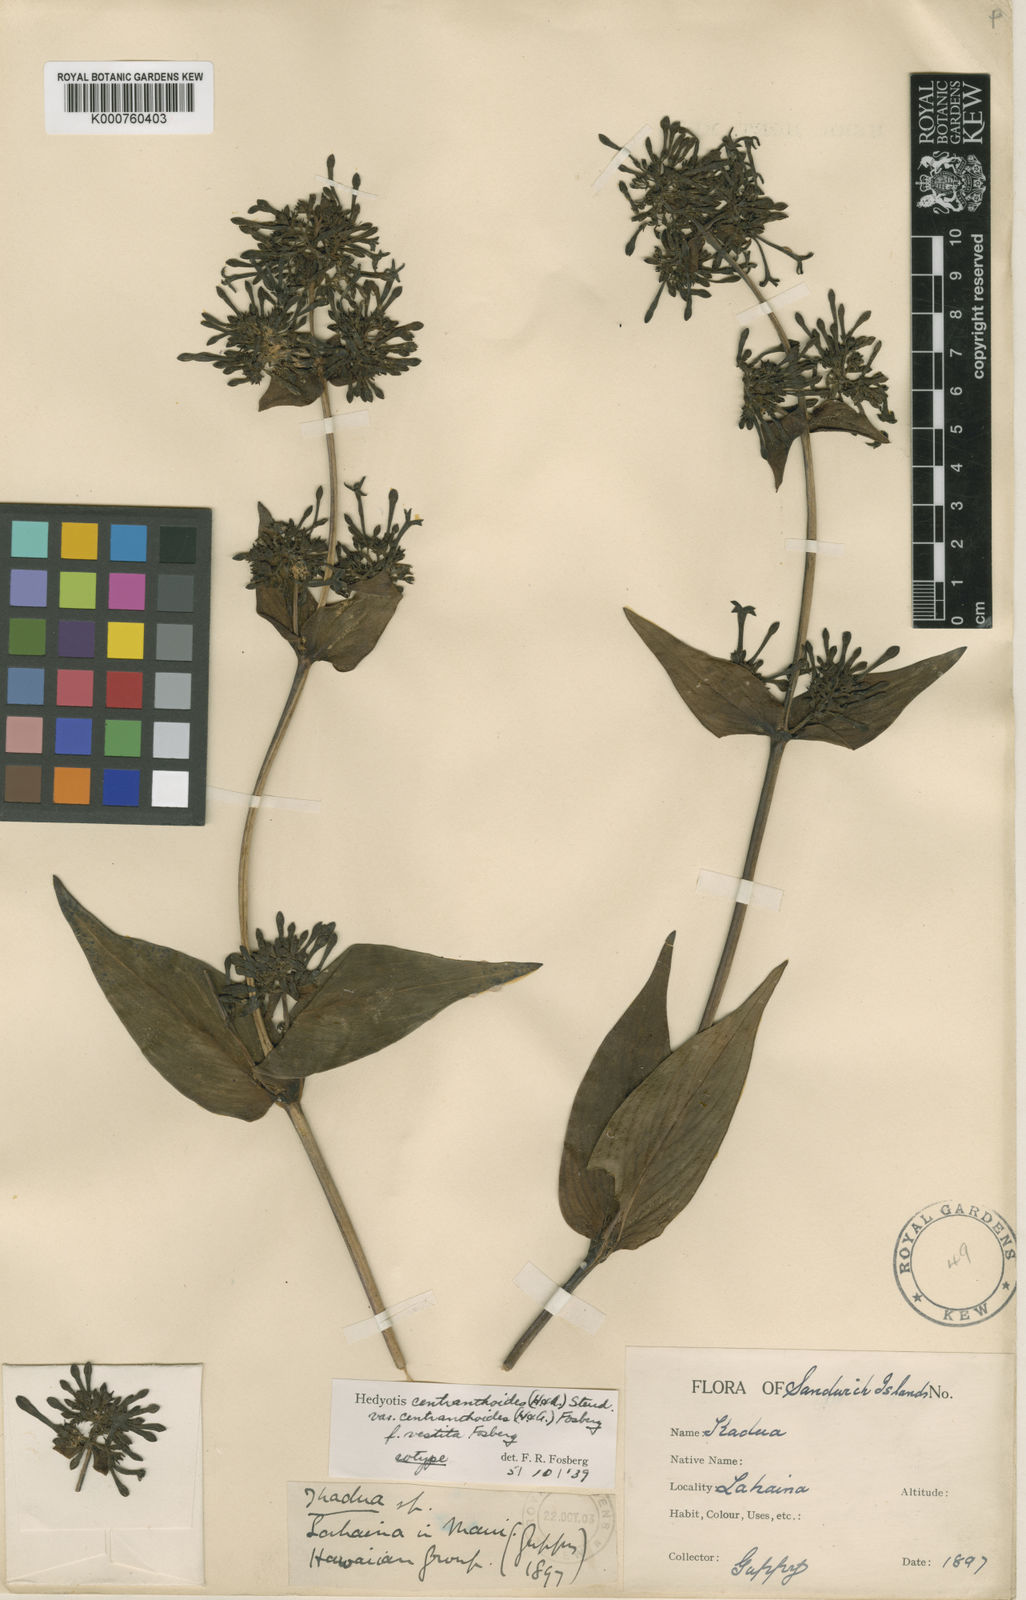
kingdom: Plantae
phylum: Tracheophyta
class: Magnoliopsida
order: Gentianales
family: Rubiaceae
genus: Kadua
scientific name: Kadua centranthoides
